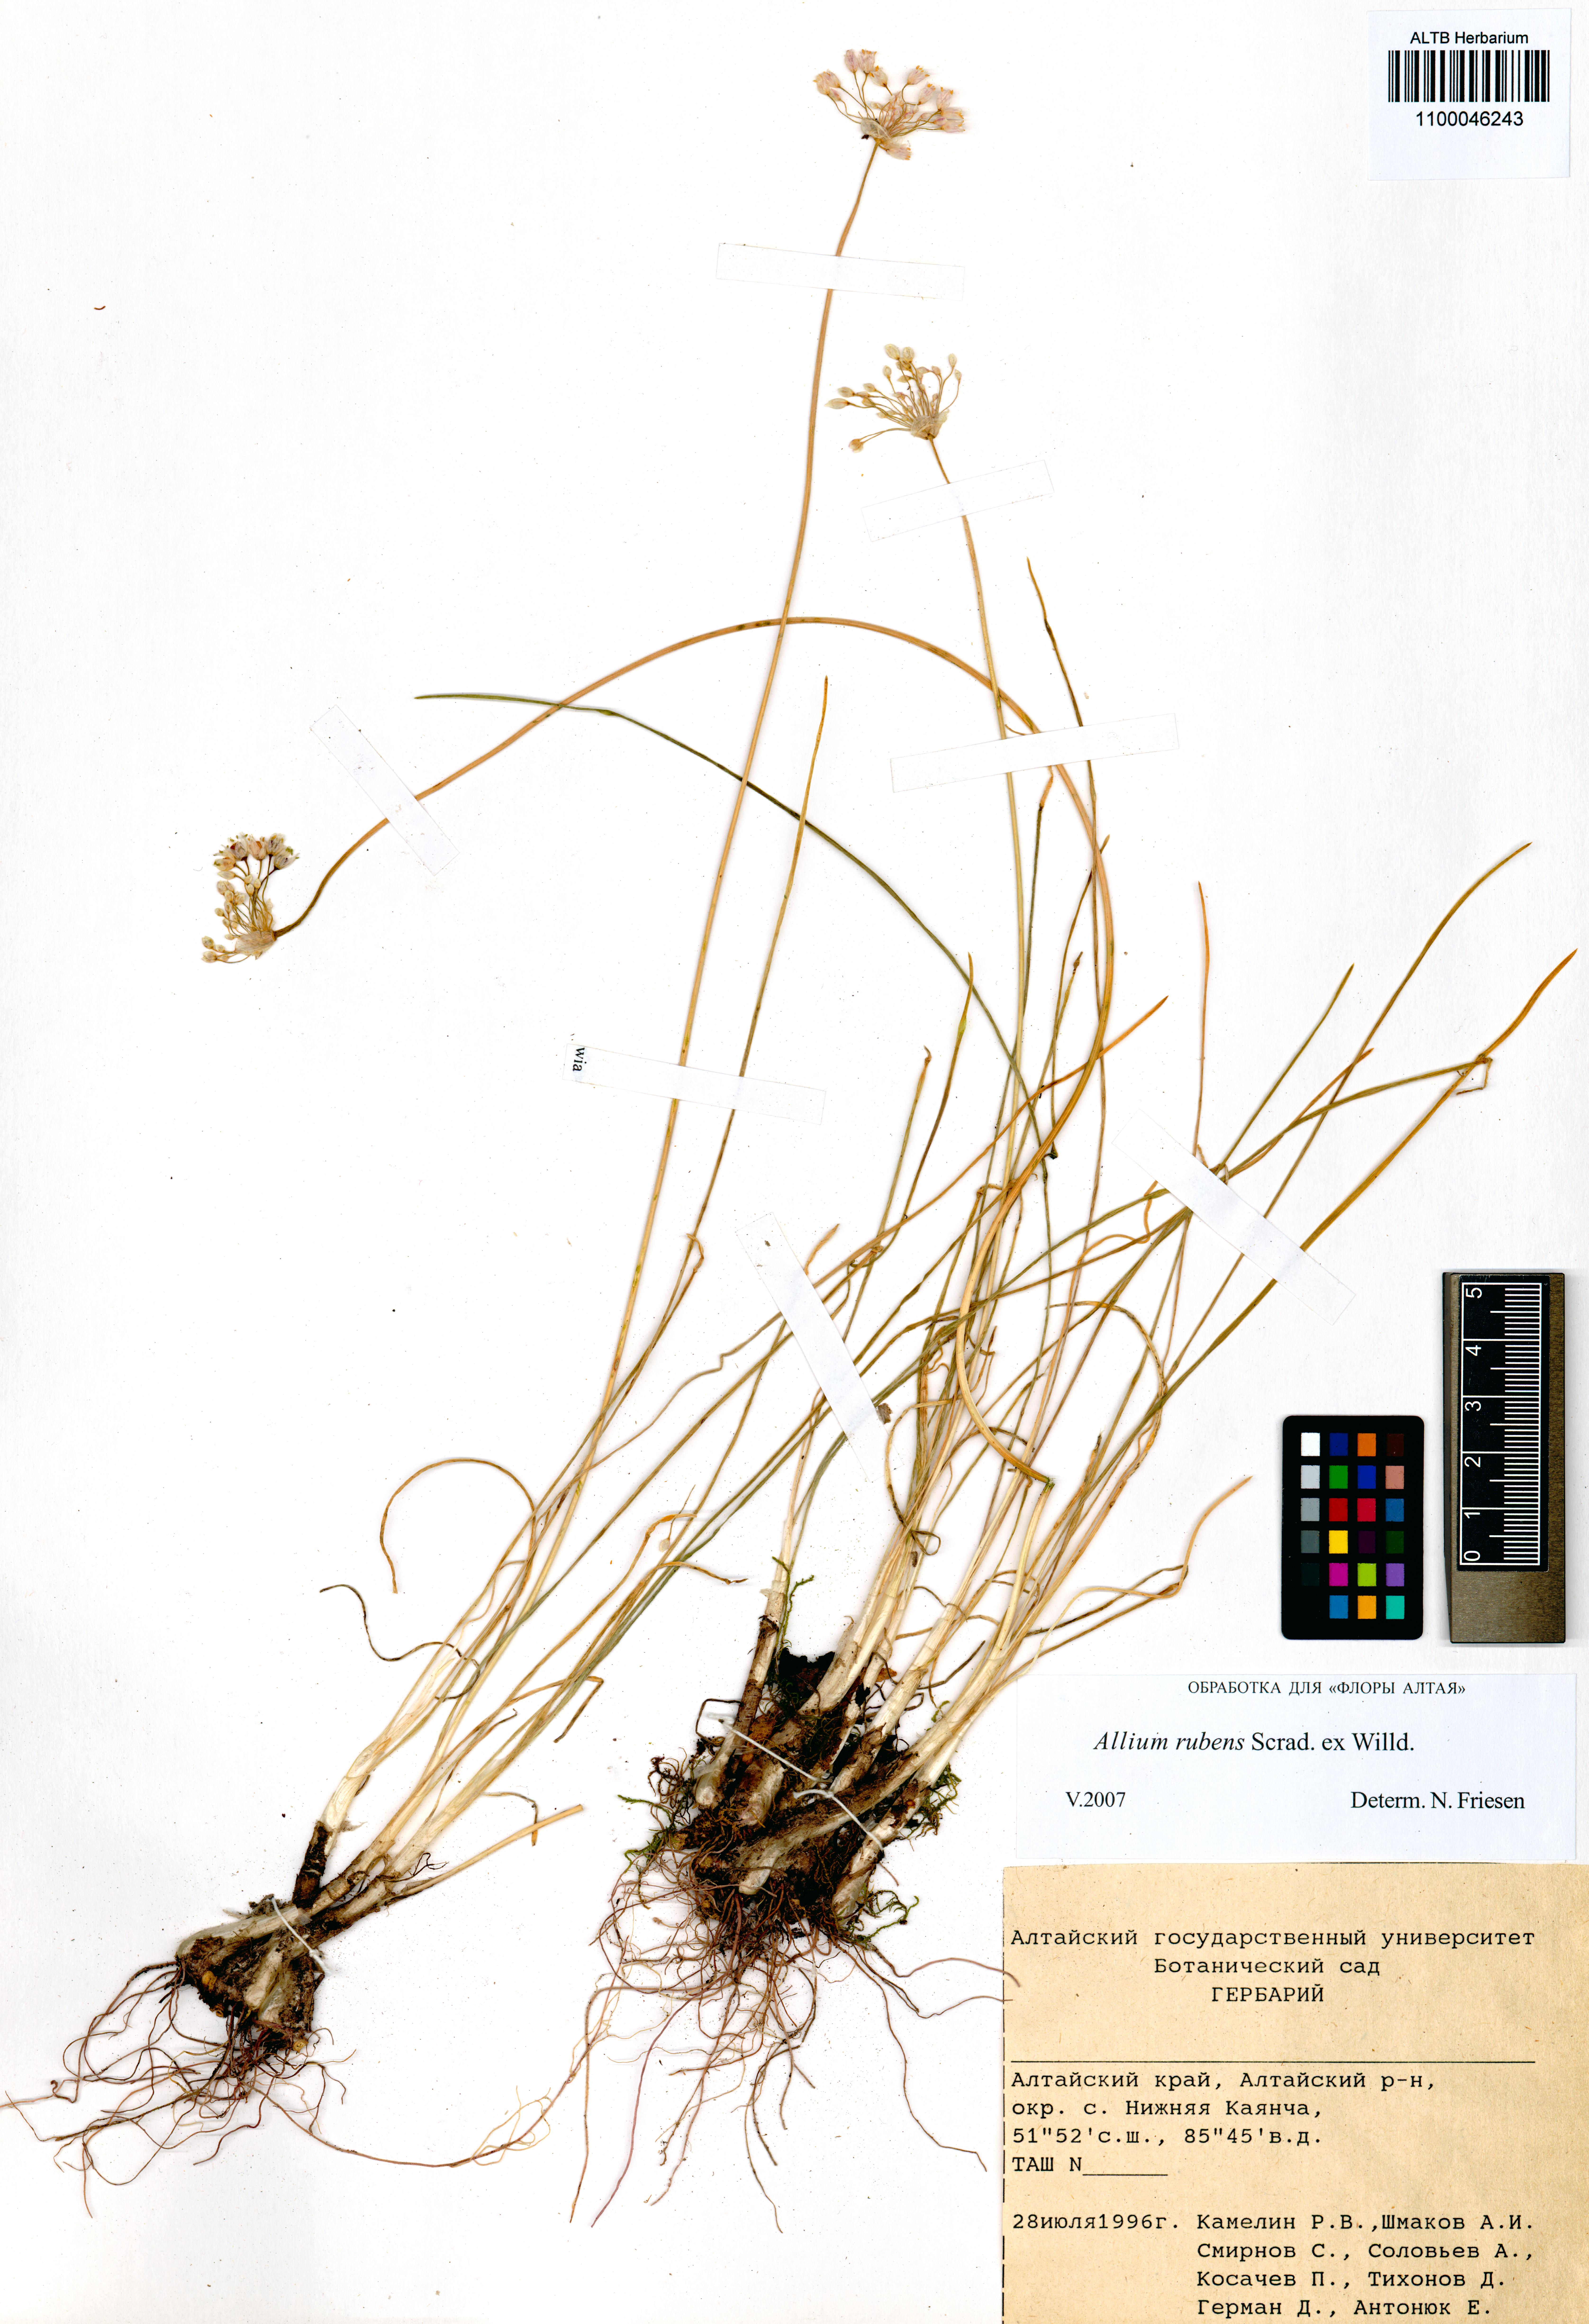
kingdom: Plantae
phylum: Tracheophyta
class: Liliopsida
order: Asparagales
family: Amaryllidaceae
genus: Allium
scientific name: Allium rubens
